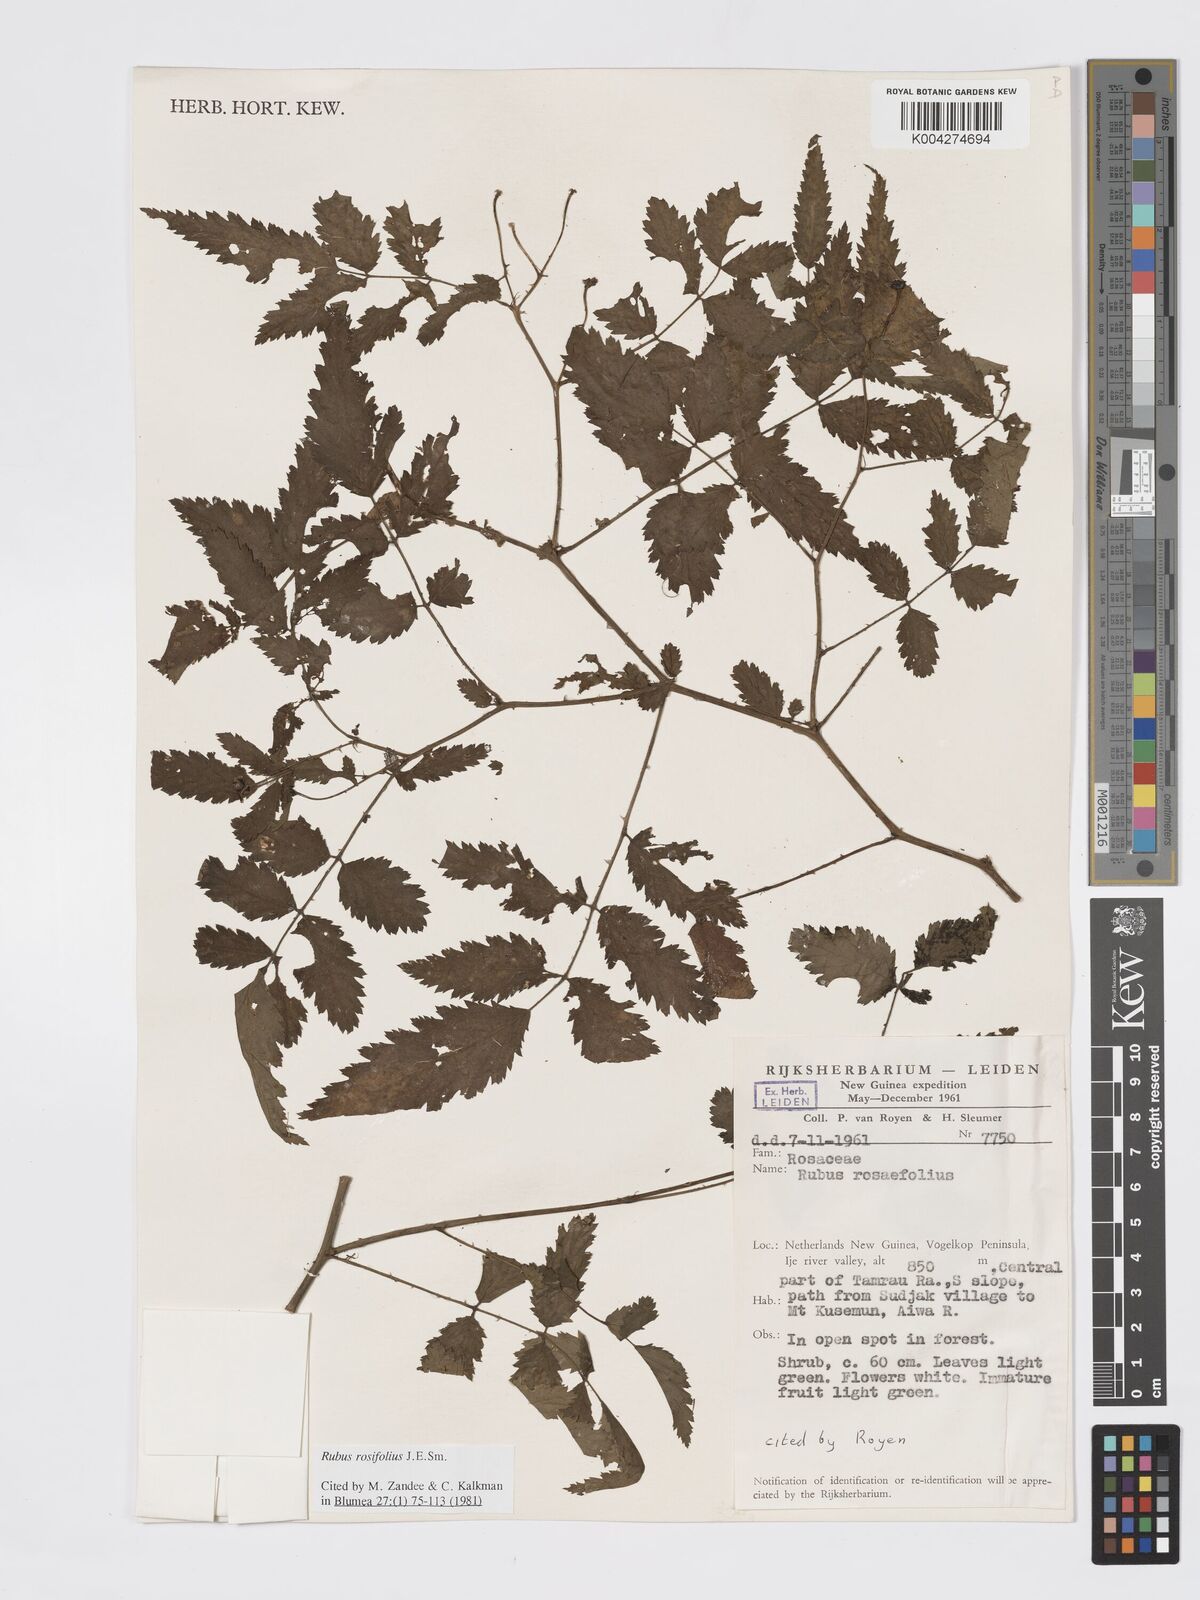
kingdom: Plantae
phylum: Tracheophyta
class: Magnoliopsida
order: Rosales
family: Rosaceae
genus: Rubus
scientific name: Rubus
